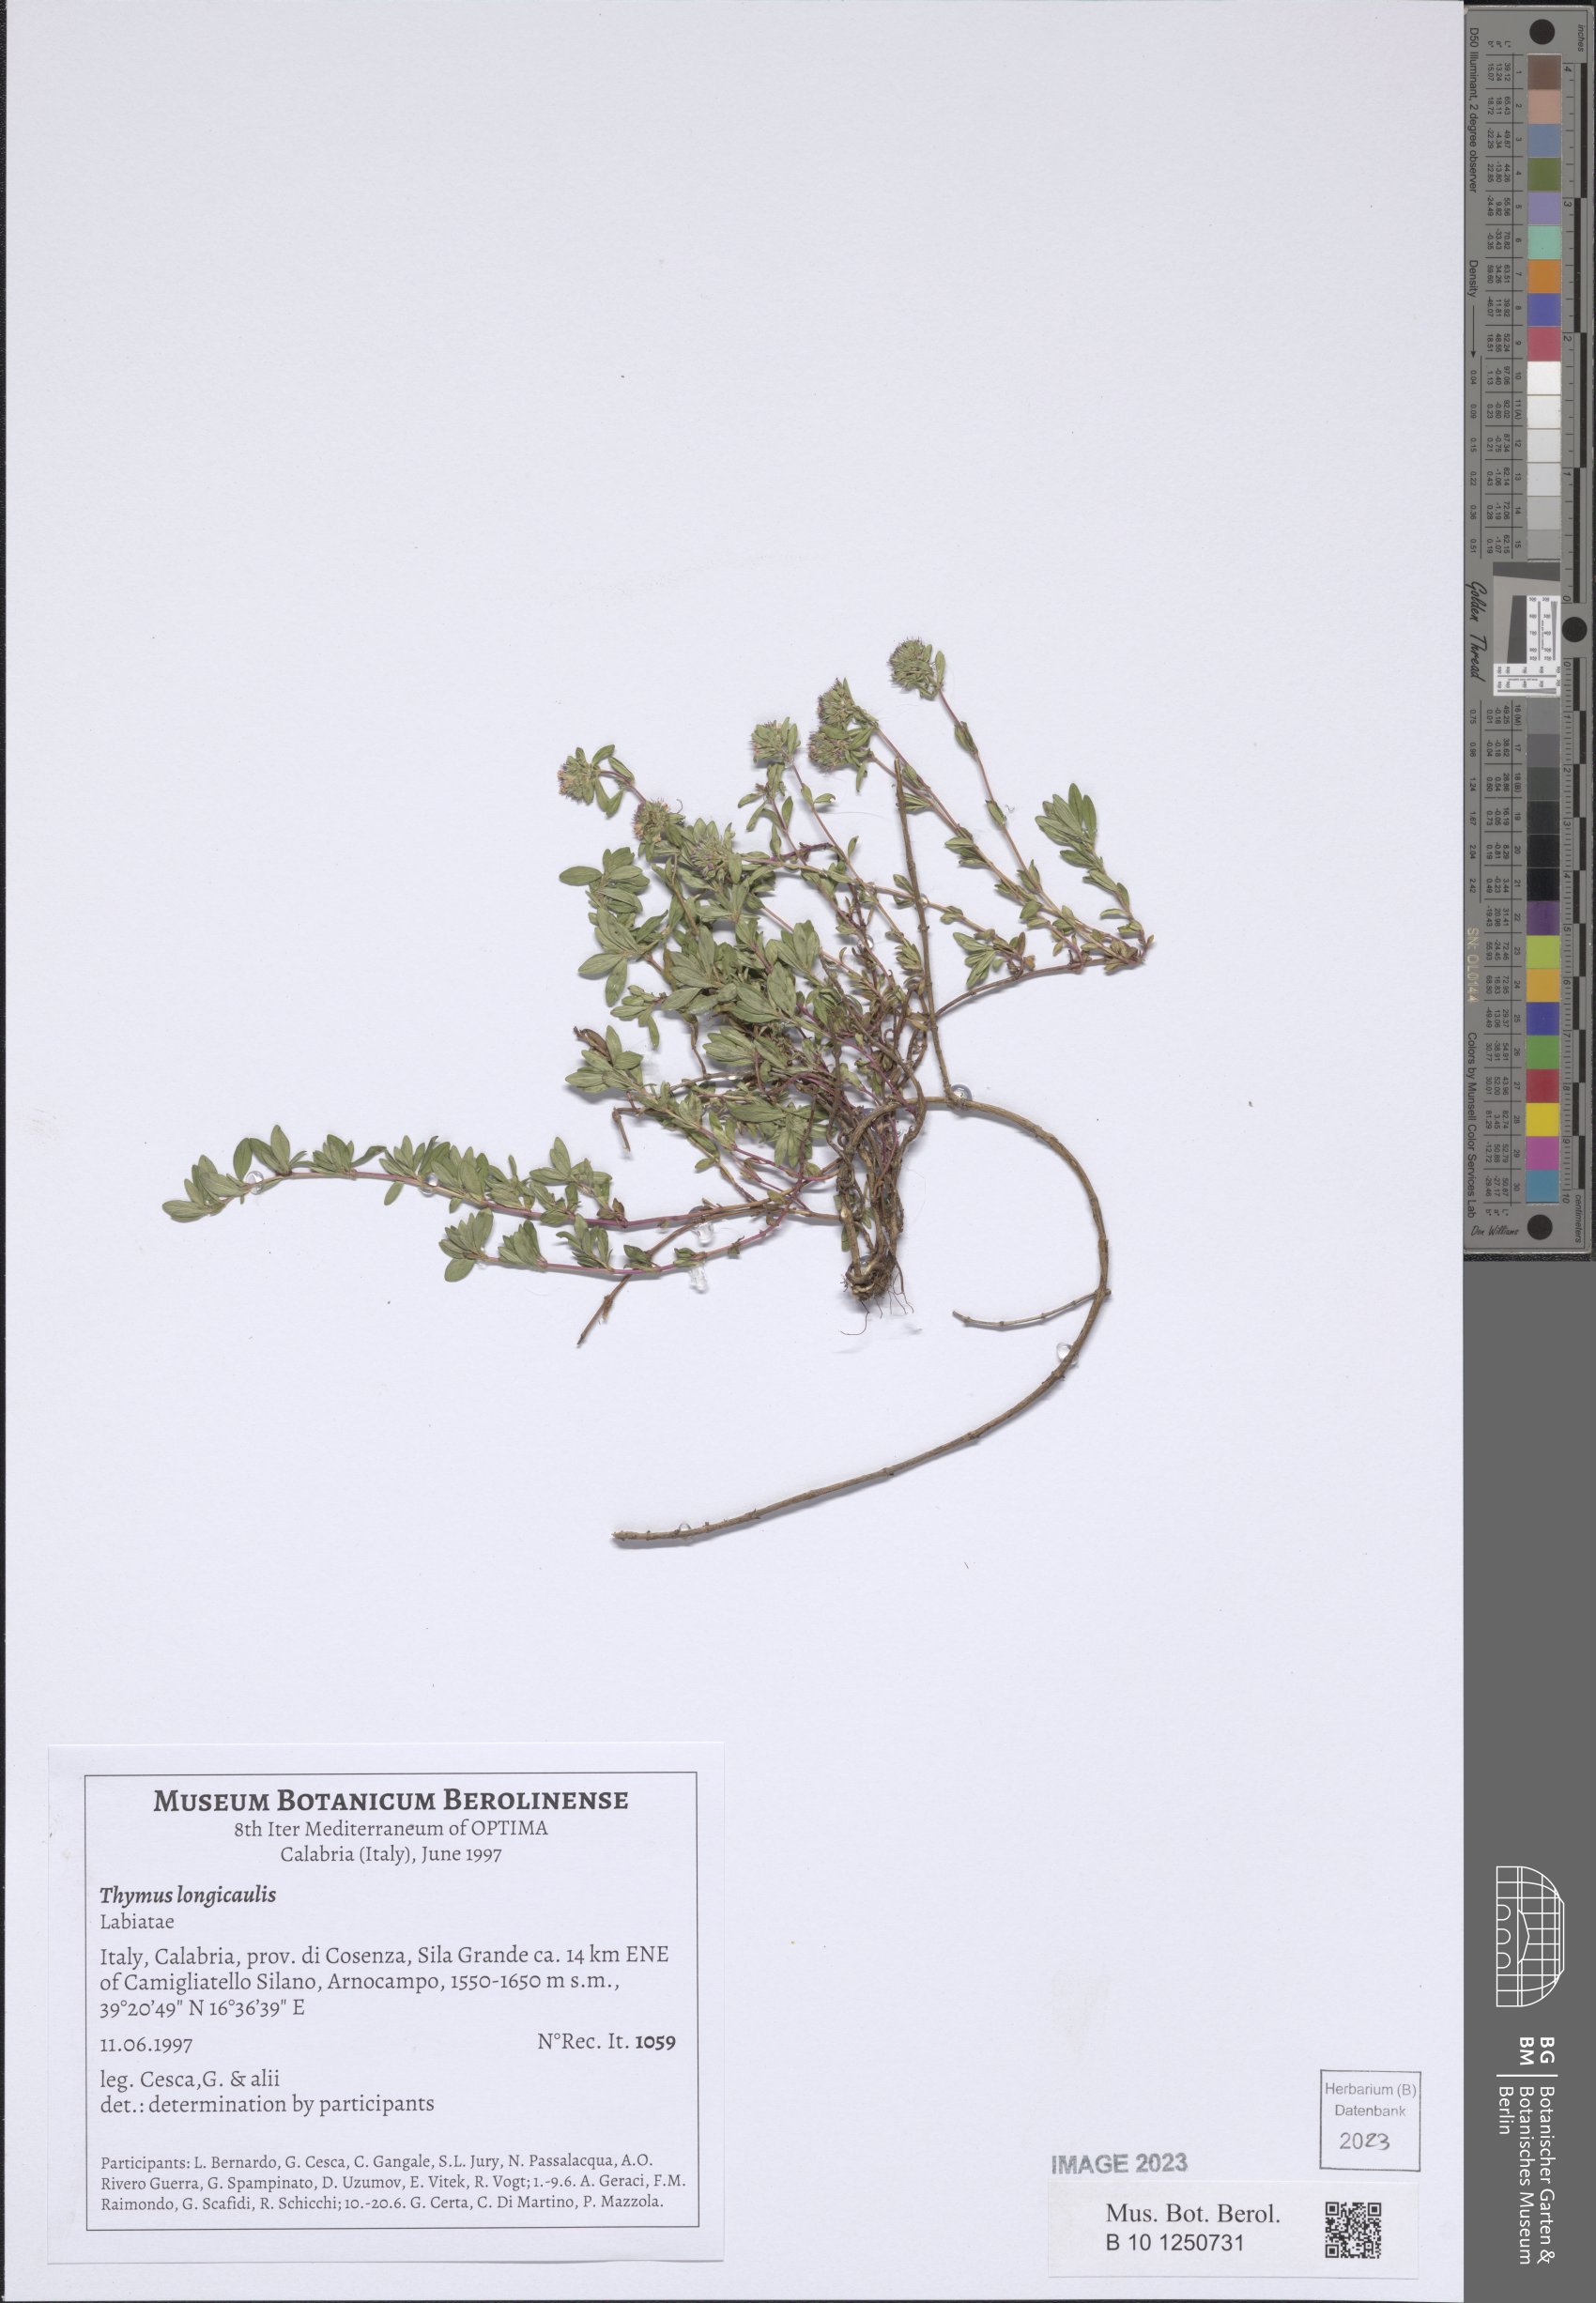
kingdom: Plantae
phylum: Tracheophyta
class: Magnoliopsida
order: Lamiales
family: Lamiaceae
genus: Thymus
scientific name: Thymus longicaulis
